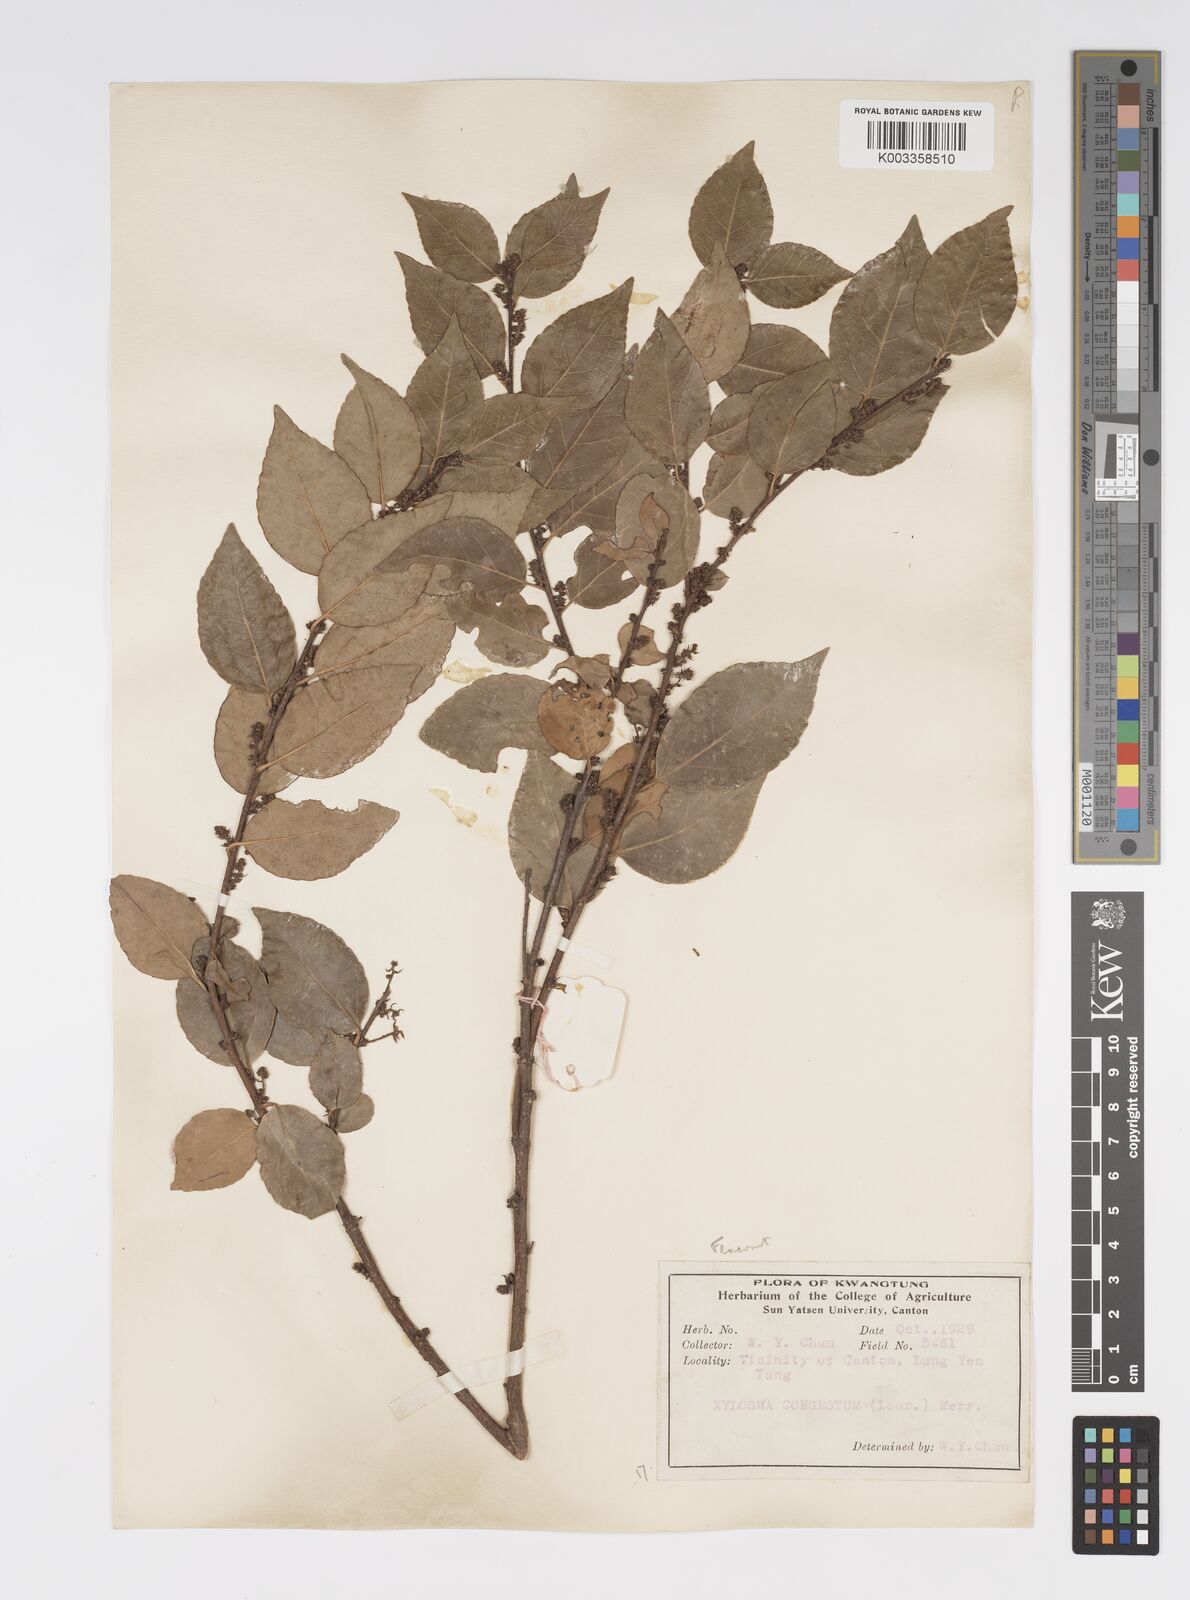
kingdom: Plantae
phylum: Tracheophyta
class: Magnoliopsida
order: Malpighiales
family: Salicaceae
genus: Xylosma
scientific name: Xylosma racemosum
